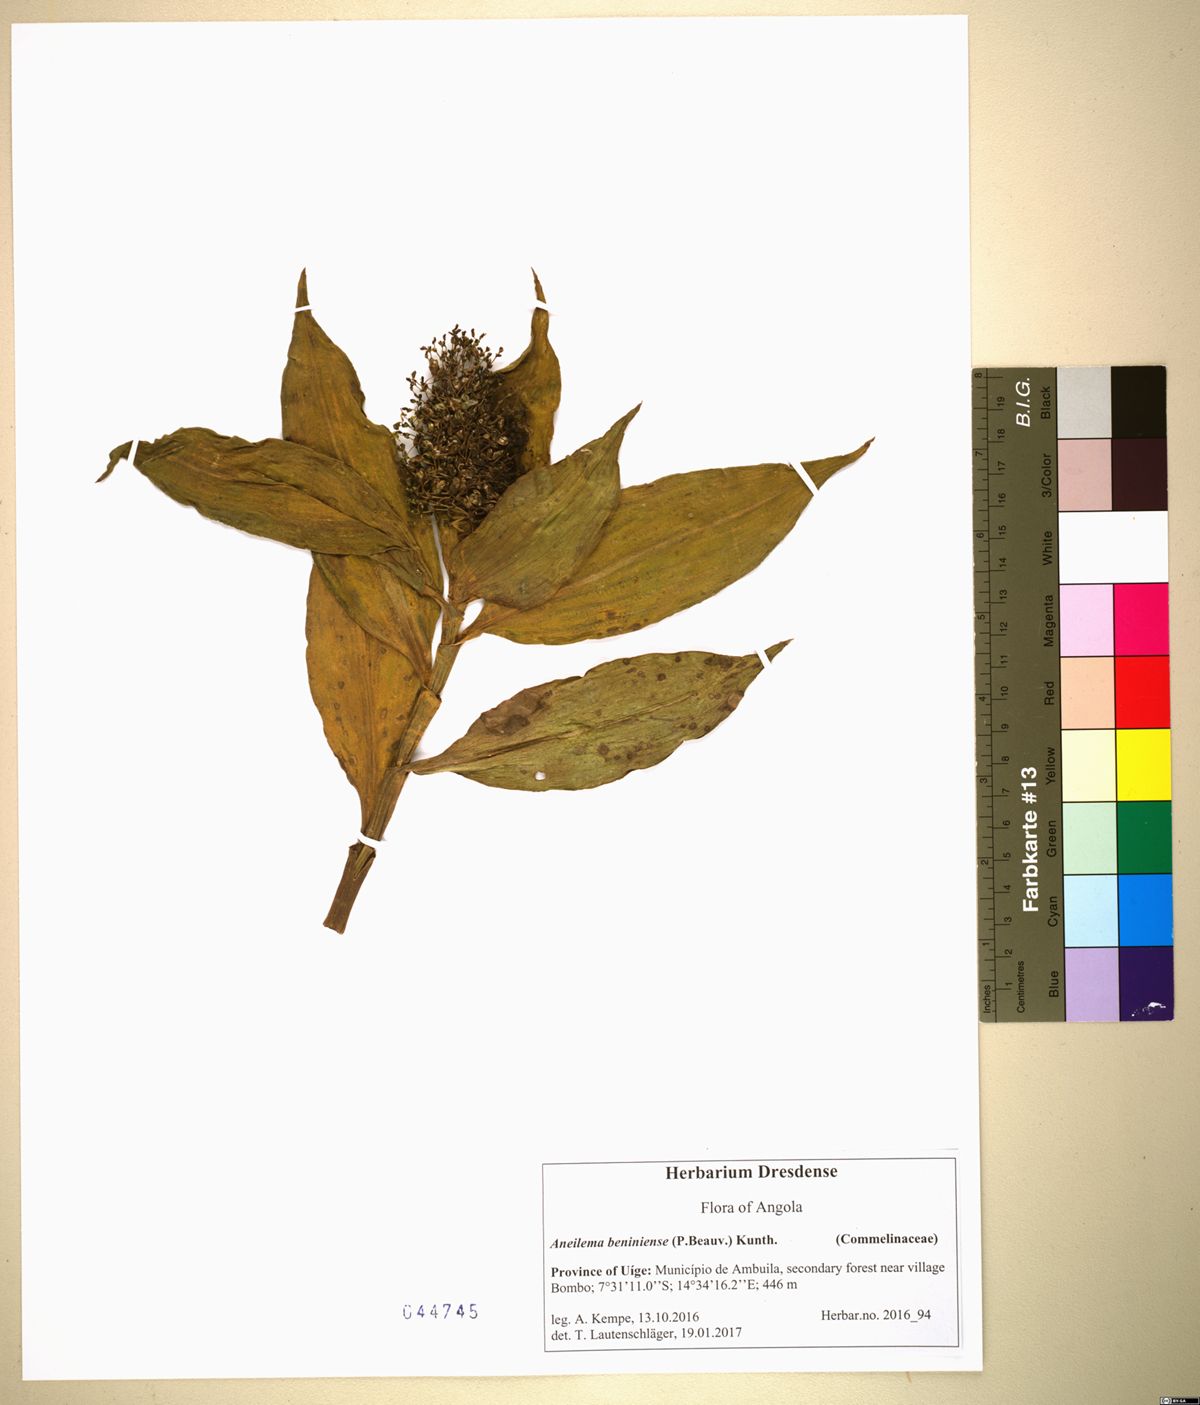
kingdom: Plantae
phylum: Tracheophyta
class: Liliopsida
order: Commelinales
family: Commelinaceae
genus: Aneilema
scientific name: Aneilema beniniense
